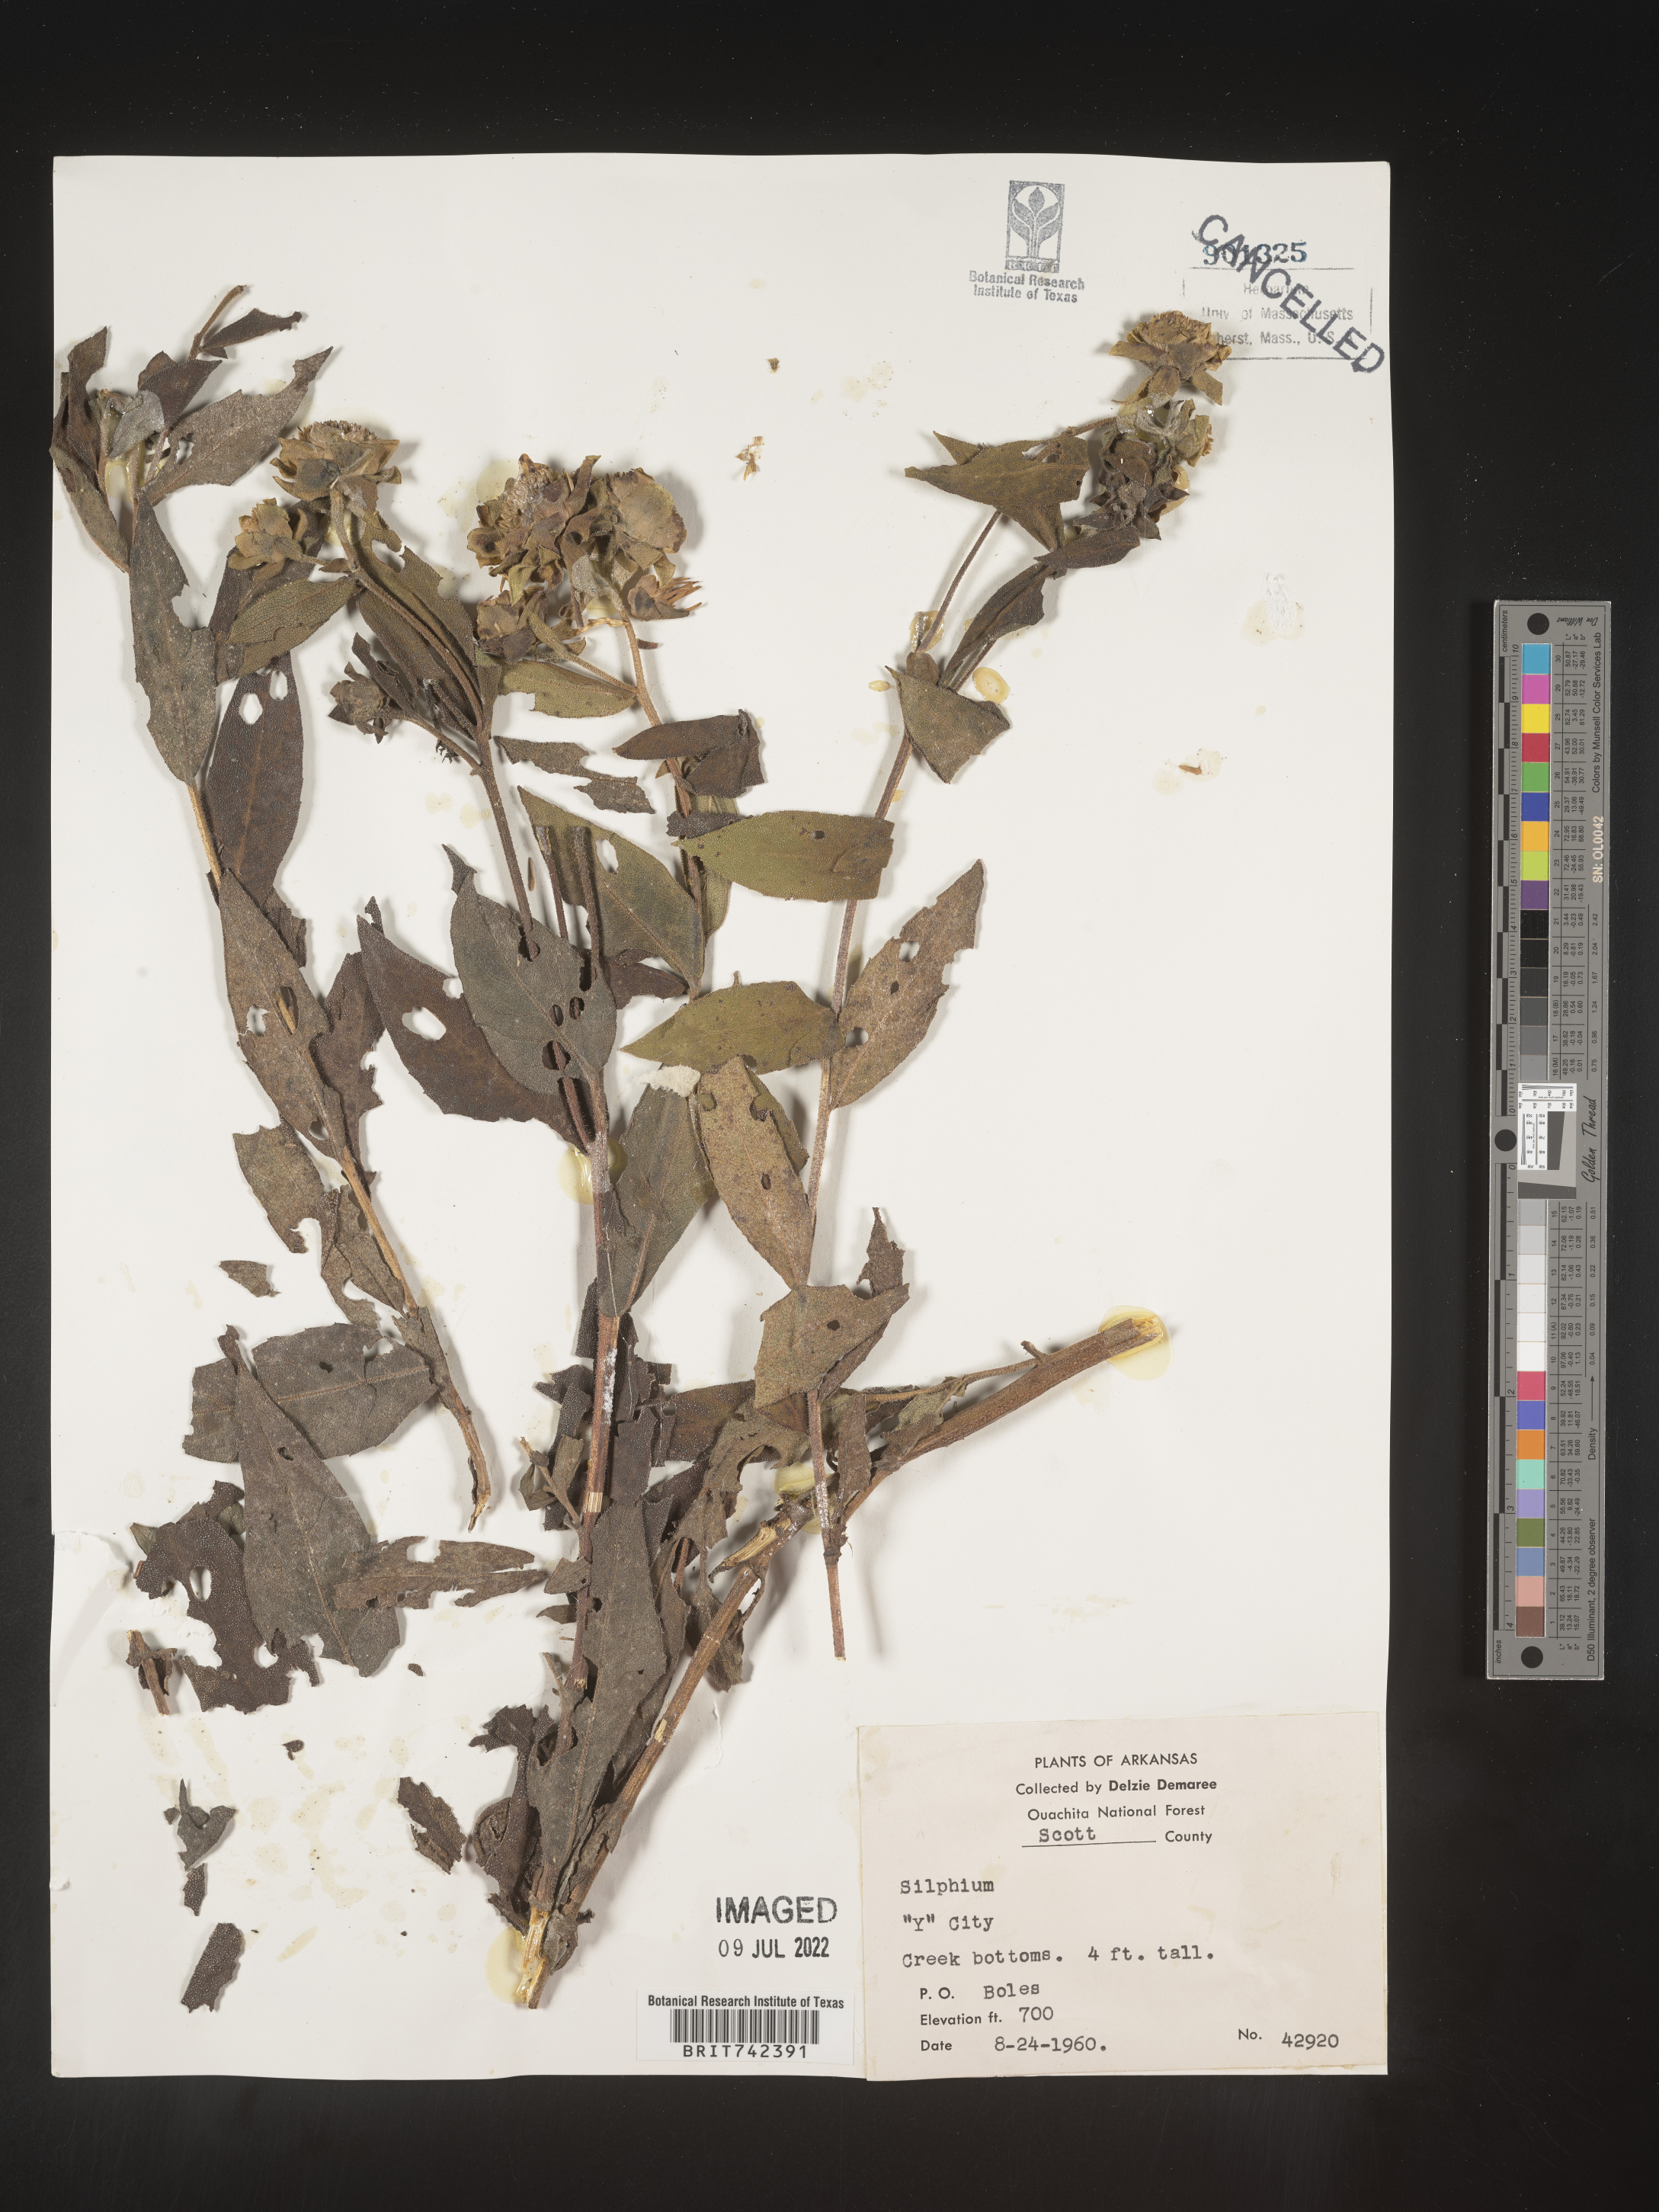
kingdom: Plantae
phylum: Tracheophyta
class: Magnoliopsida
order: Asterales
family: Asteraceae
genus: Silphium
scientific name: Silphium radula
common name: Roughleaf rosinweed
